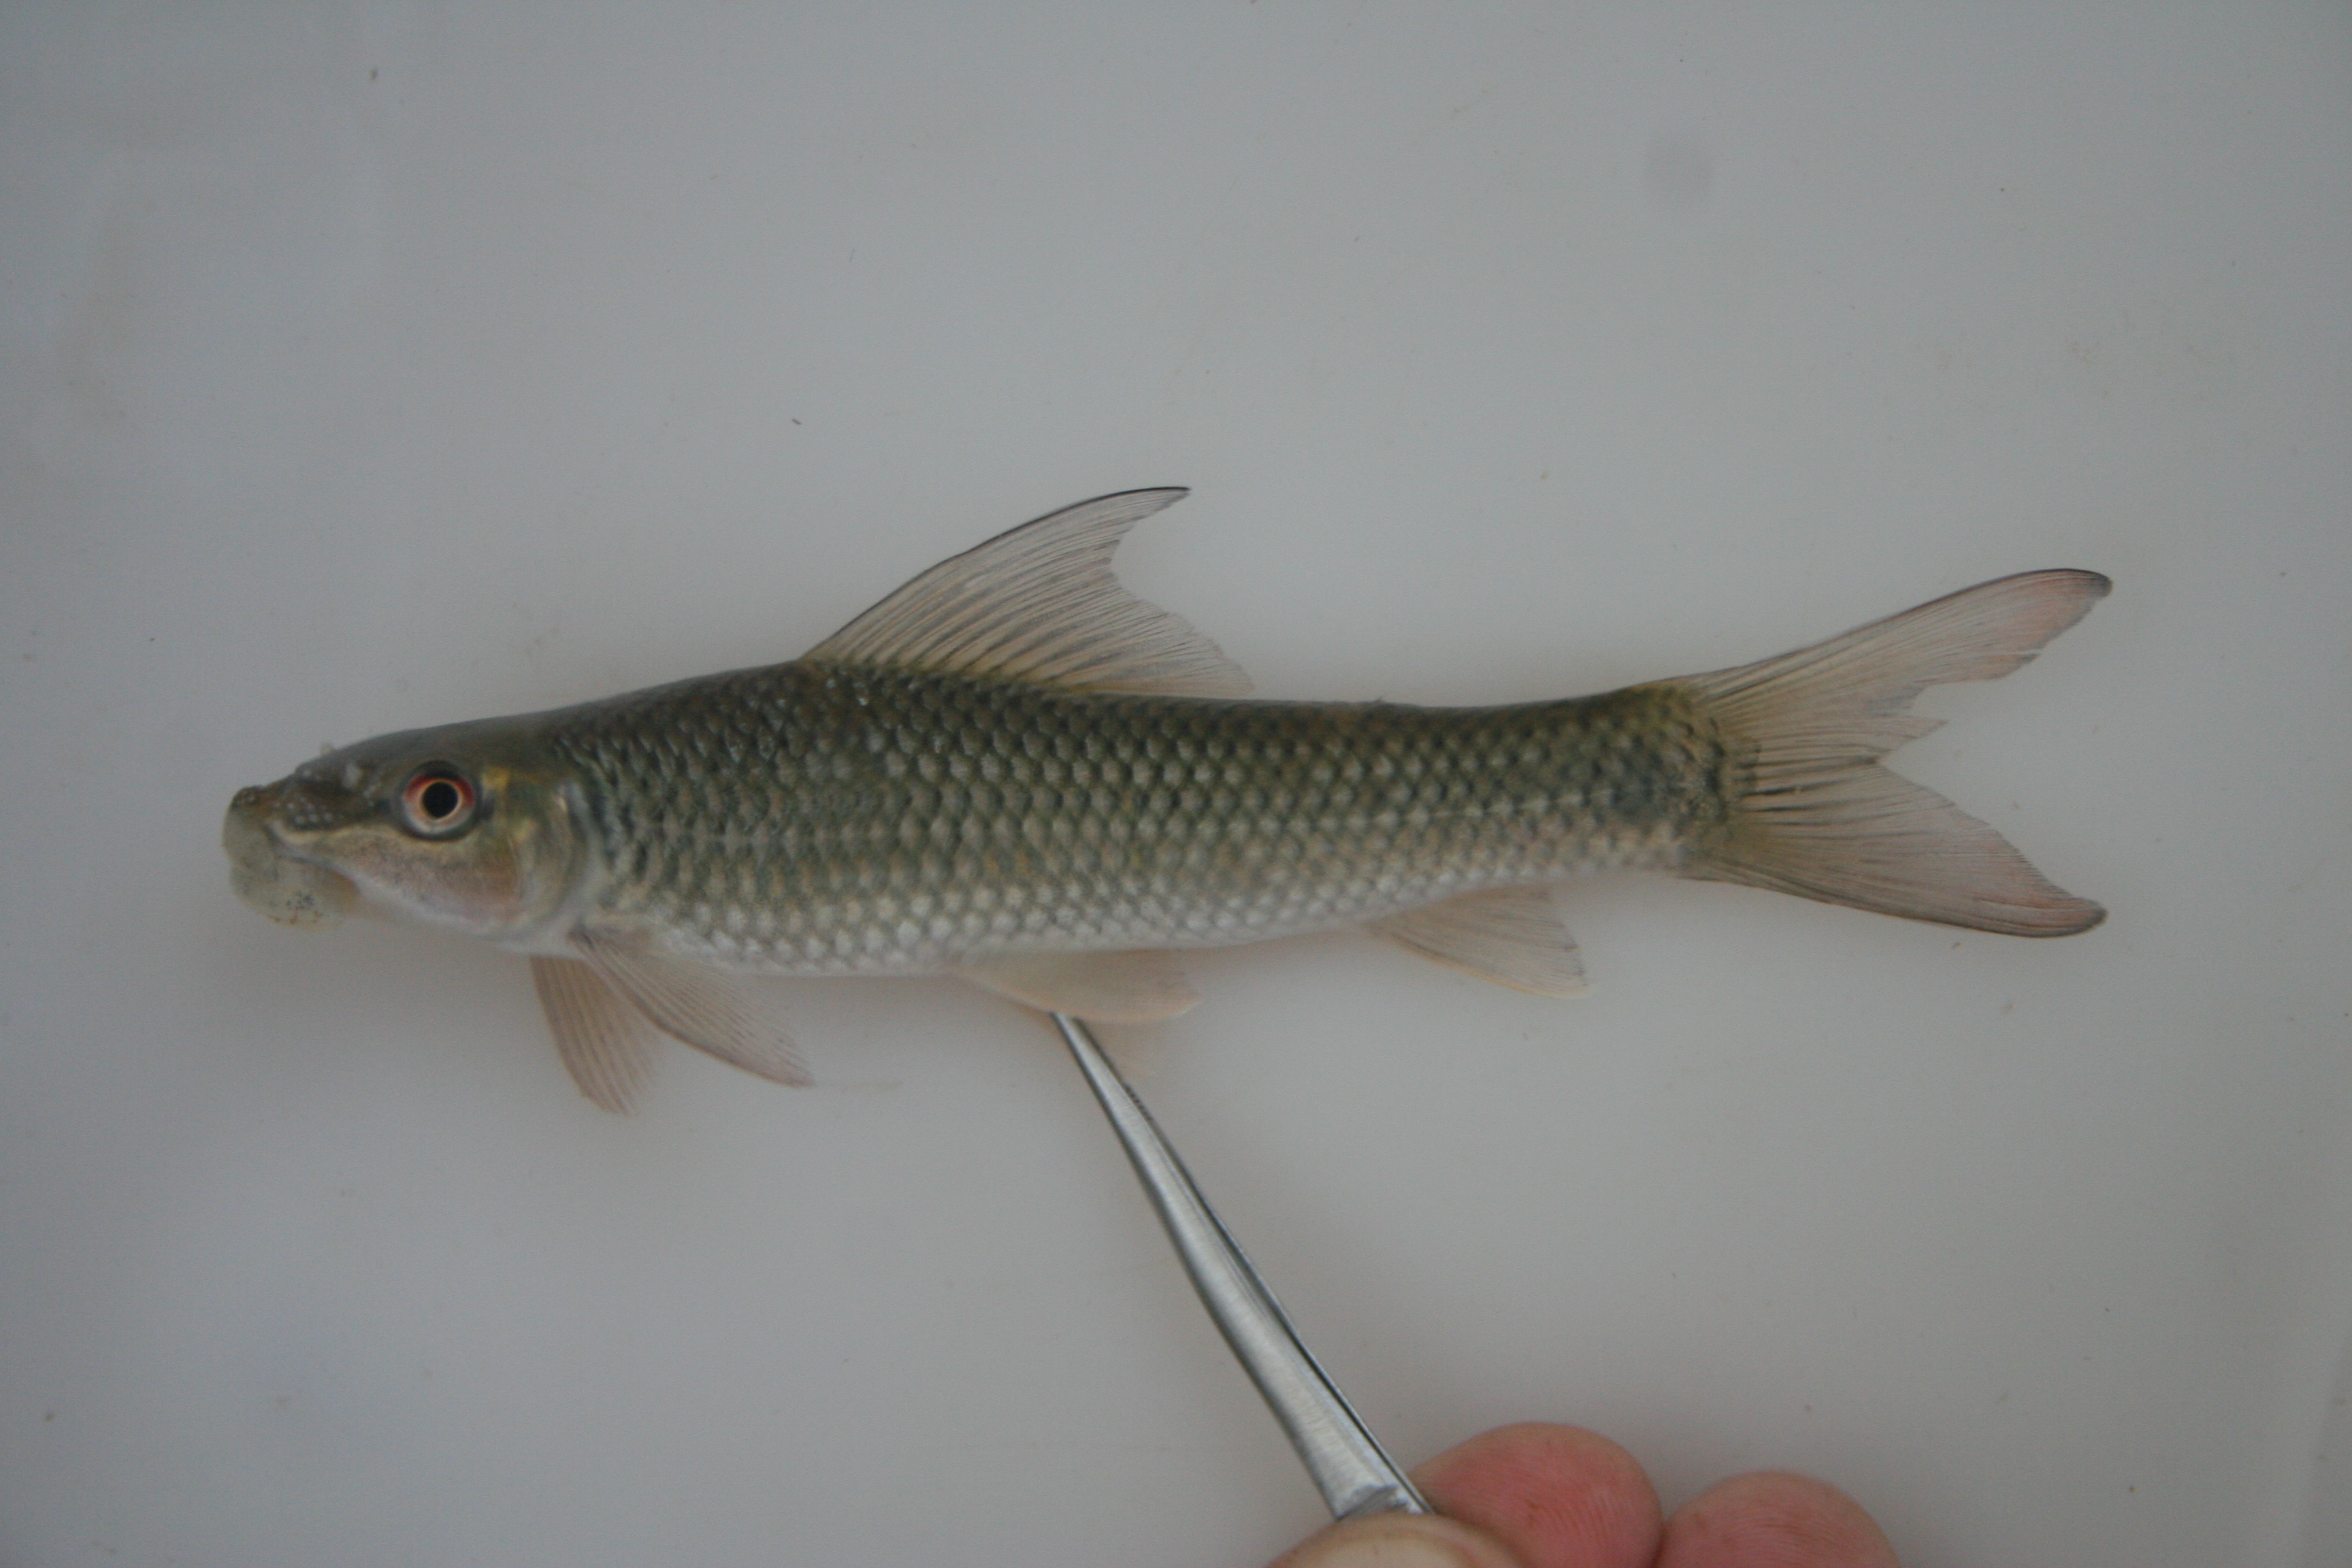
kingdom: Animalia
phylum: Chordata
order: Cypriniformes
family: Cyprinidae
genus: Labeo
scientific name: Labeo
